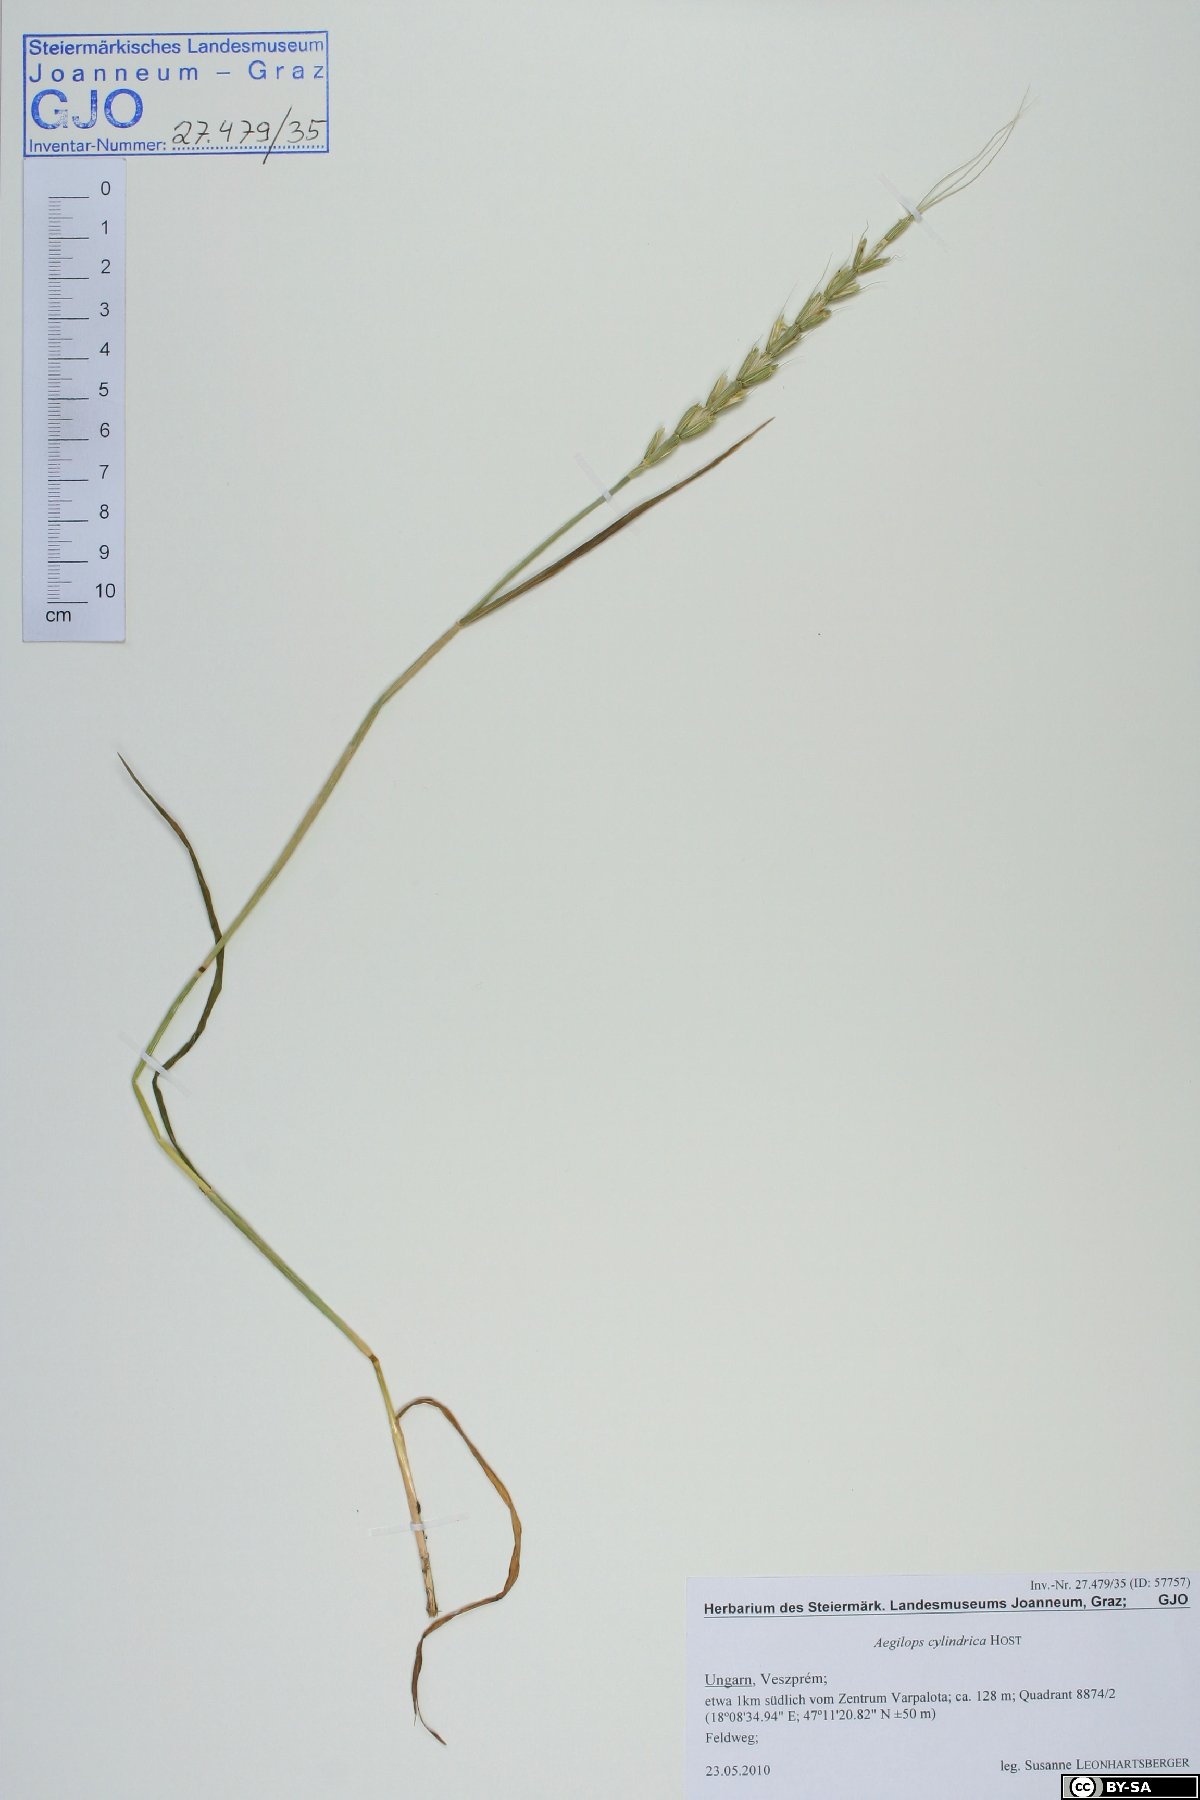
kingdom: Plantae
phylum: Tracheophyta
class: Liliopsida
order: Poales
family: Poaceae
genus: Aegilops
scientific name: Aegilops cylindrica
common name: Jointed goatgrass
